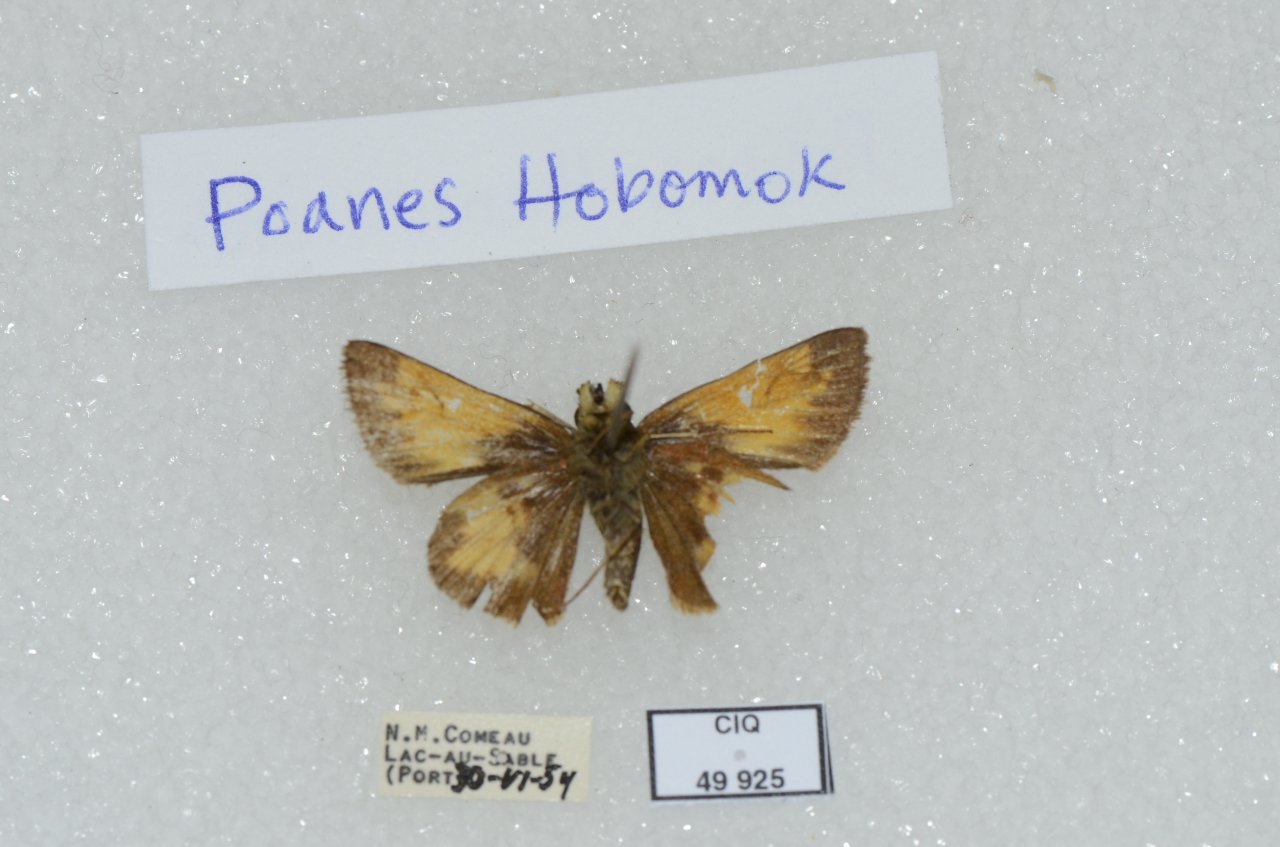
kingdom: Animalia
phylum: Arthropoda
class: Insecta
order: Lepidoptera
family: Hesperiidae
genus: Lon
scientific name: Lon hobomok
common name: Hobomok Skipper
